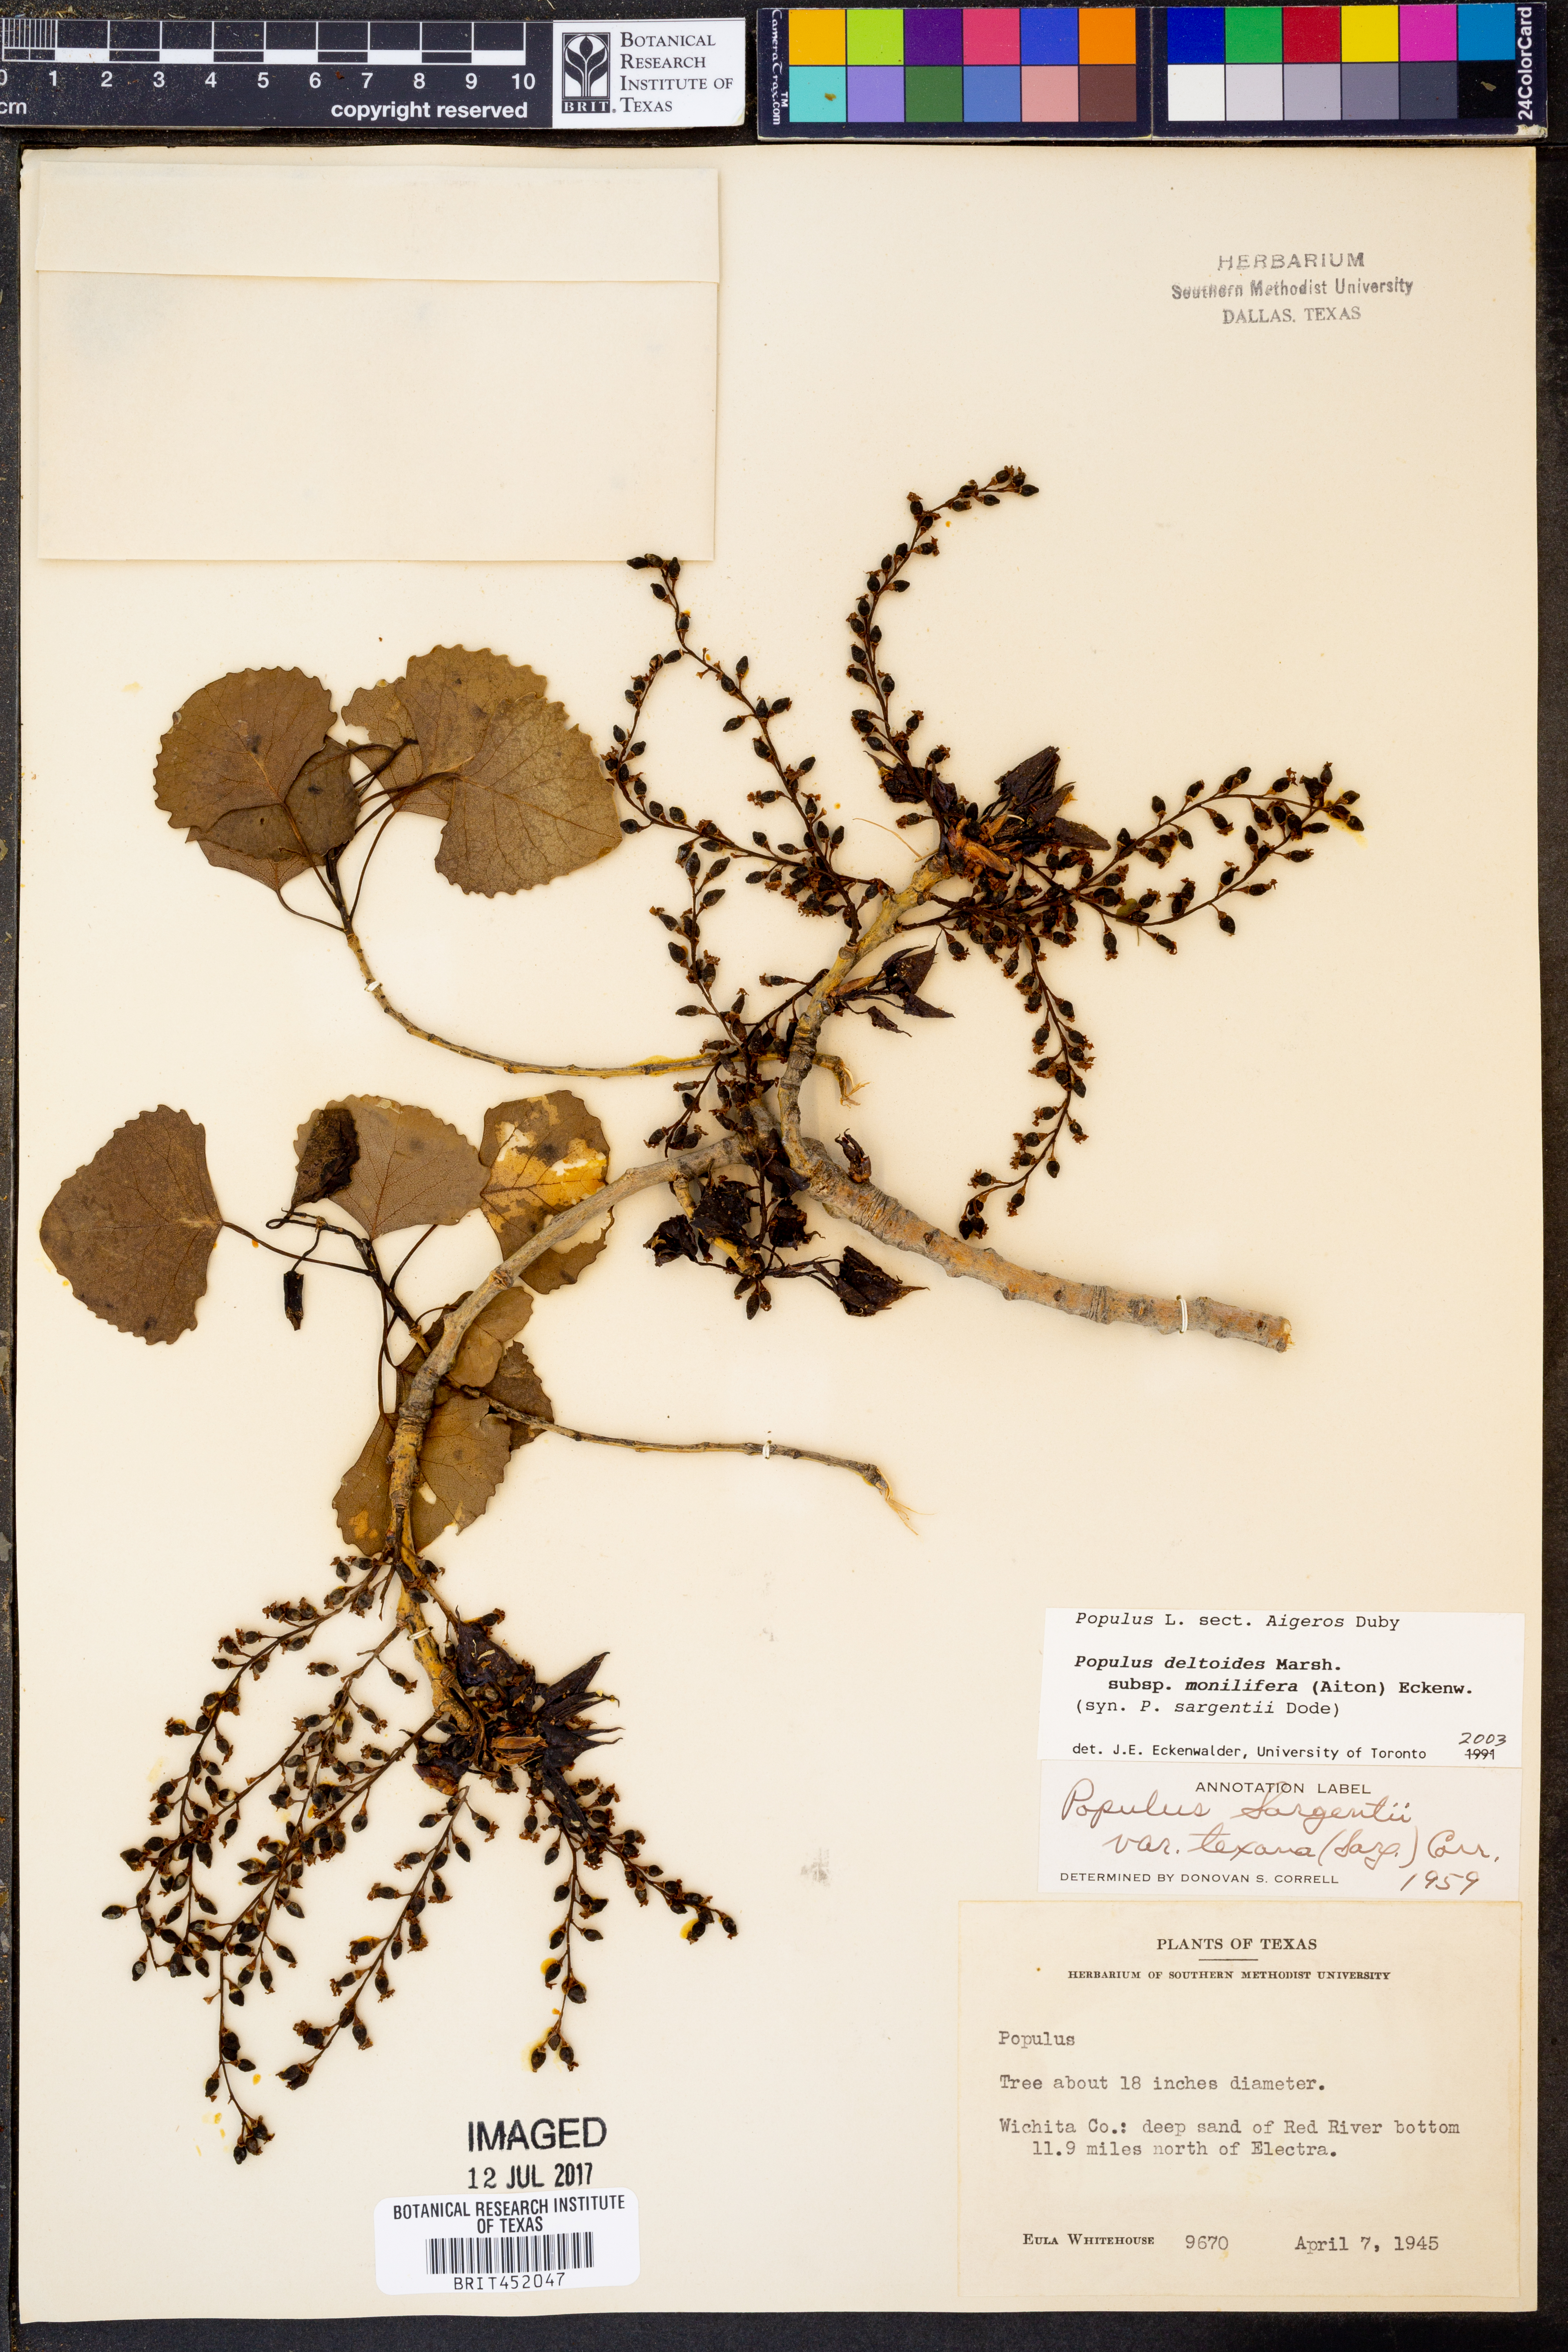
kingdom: Plantae
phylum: Tracheophyta
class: Magnoliopsida
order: Malpighiales
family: Salicaceae
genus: Populus
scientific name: Populus deltoides
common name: Eastern cottonwood
